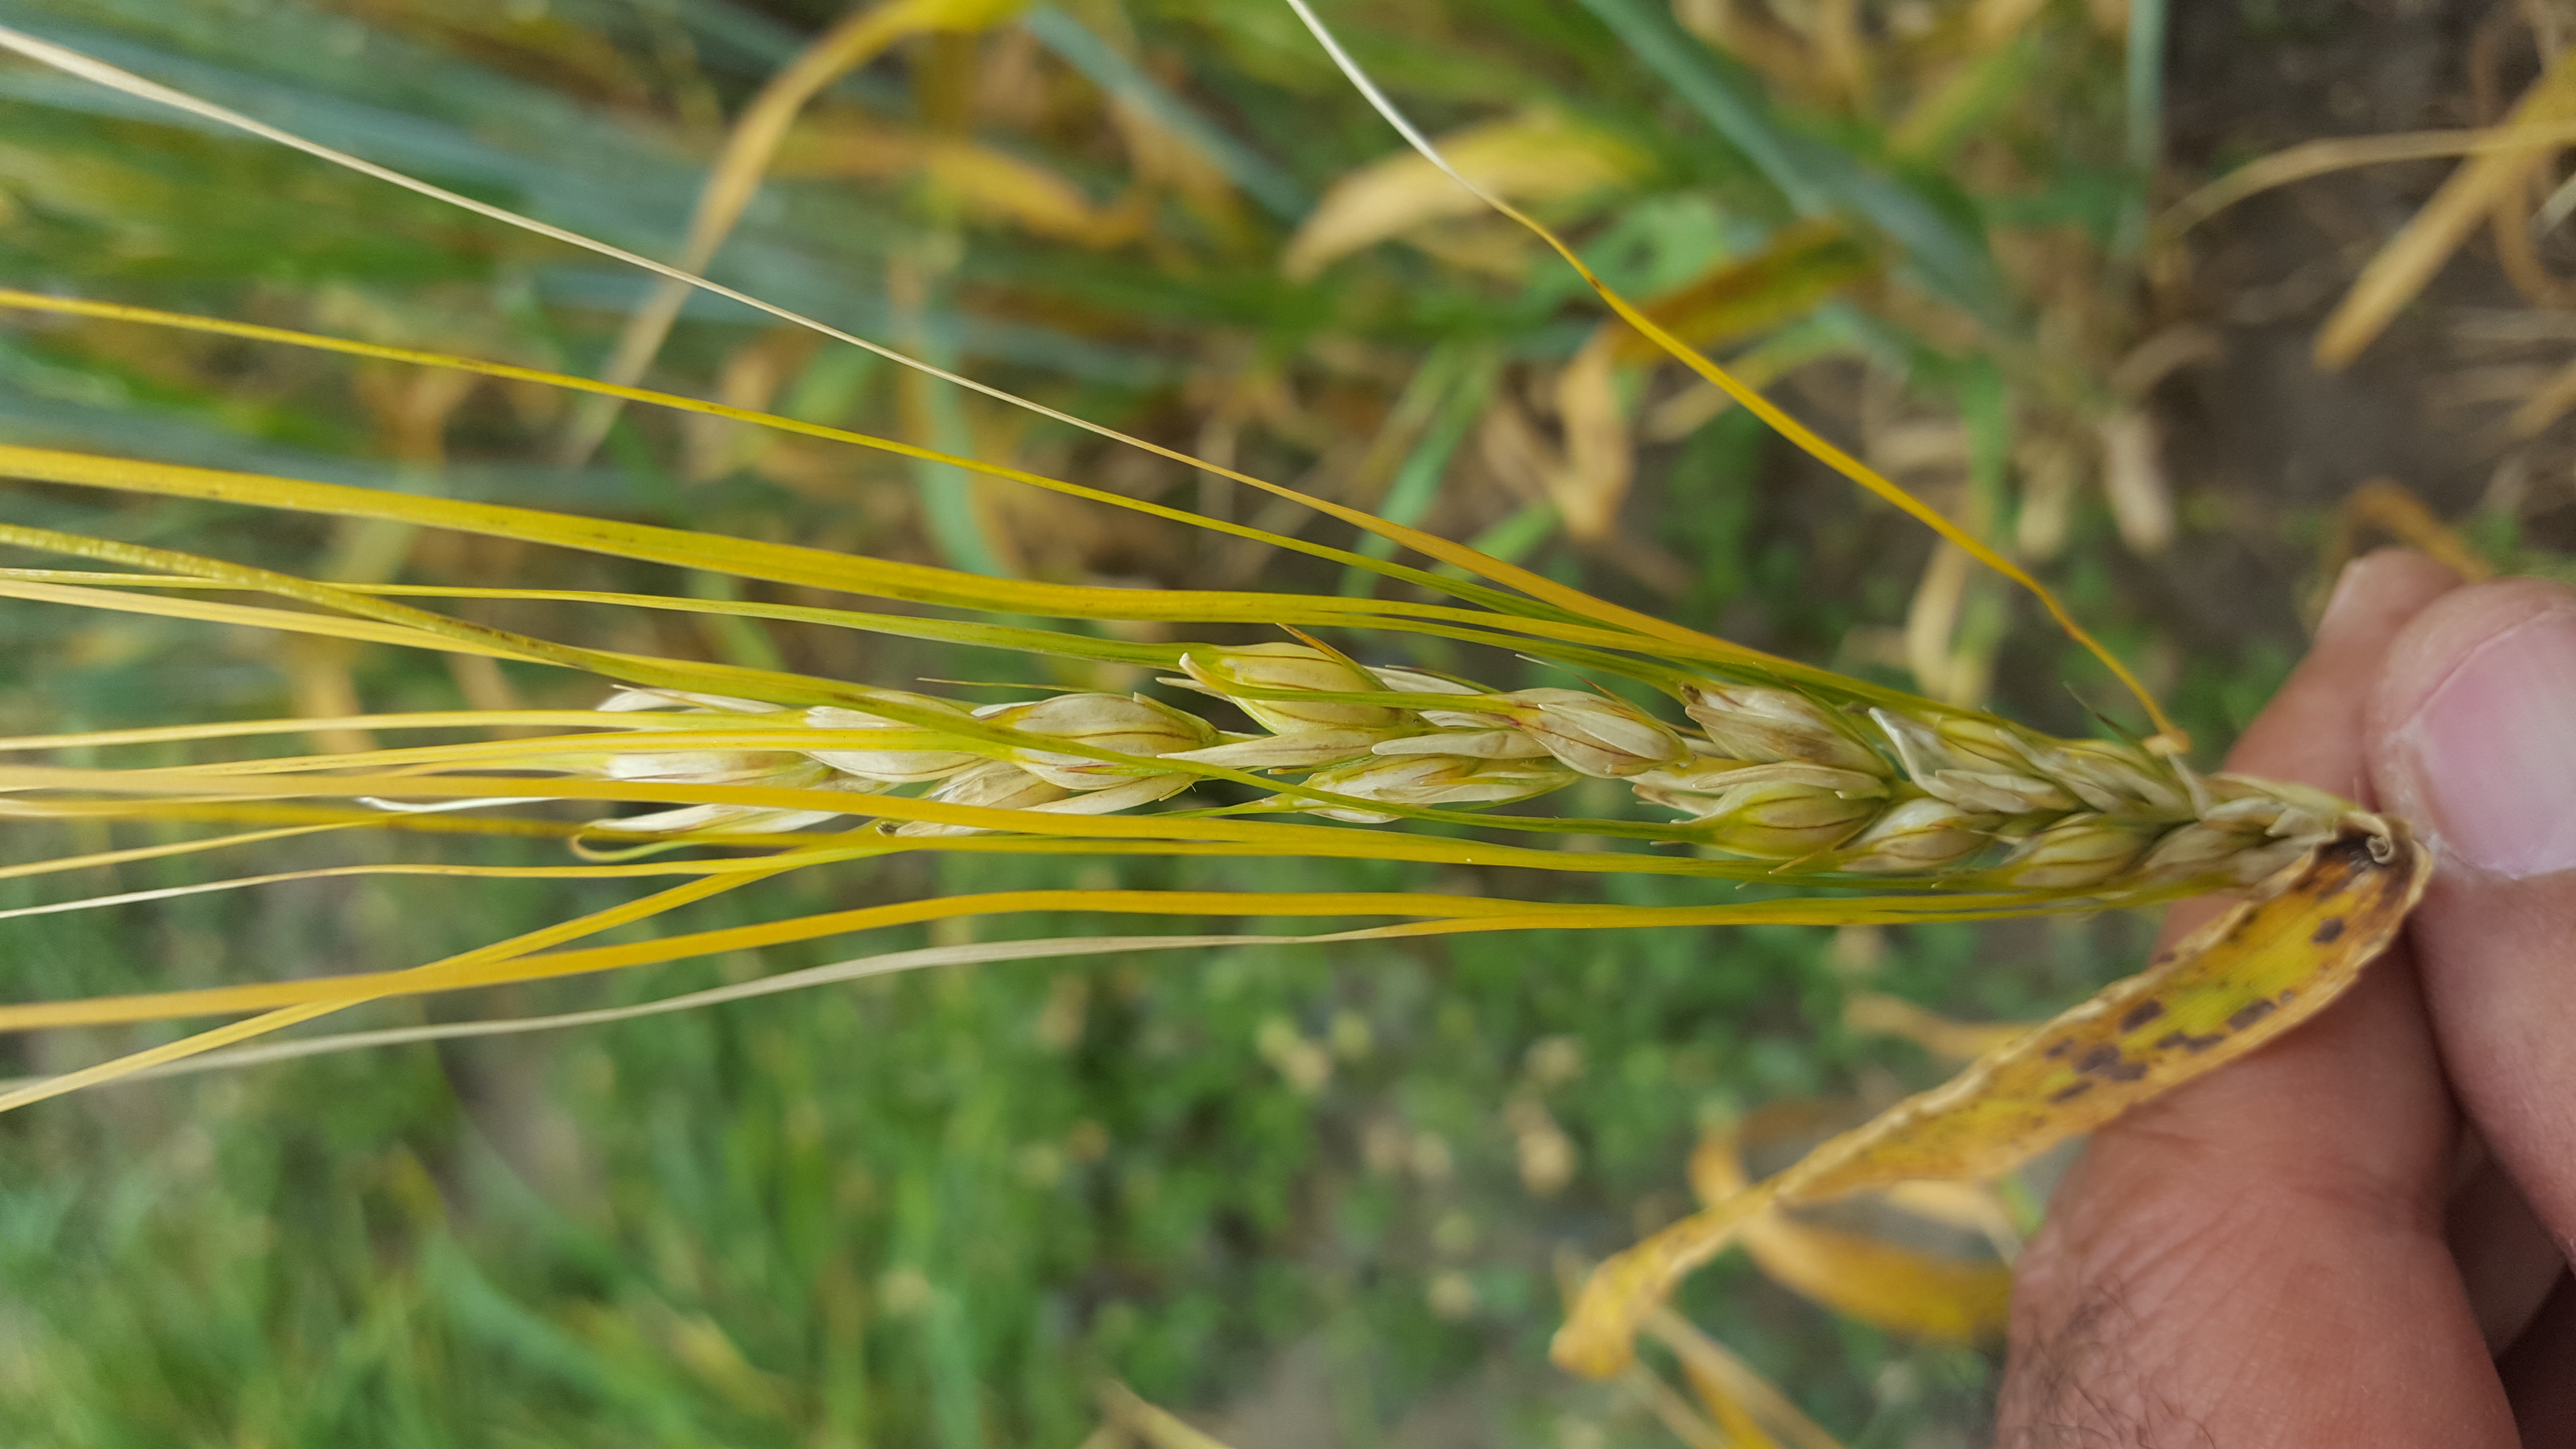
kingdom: Plantae
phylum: Tracheophyta
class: Liliopsida
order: Poales
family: Poaceae
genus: Hordeum
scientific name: Hordeum vulgare
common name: Common barley
